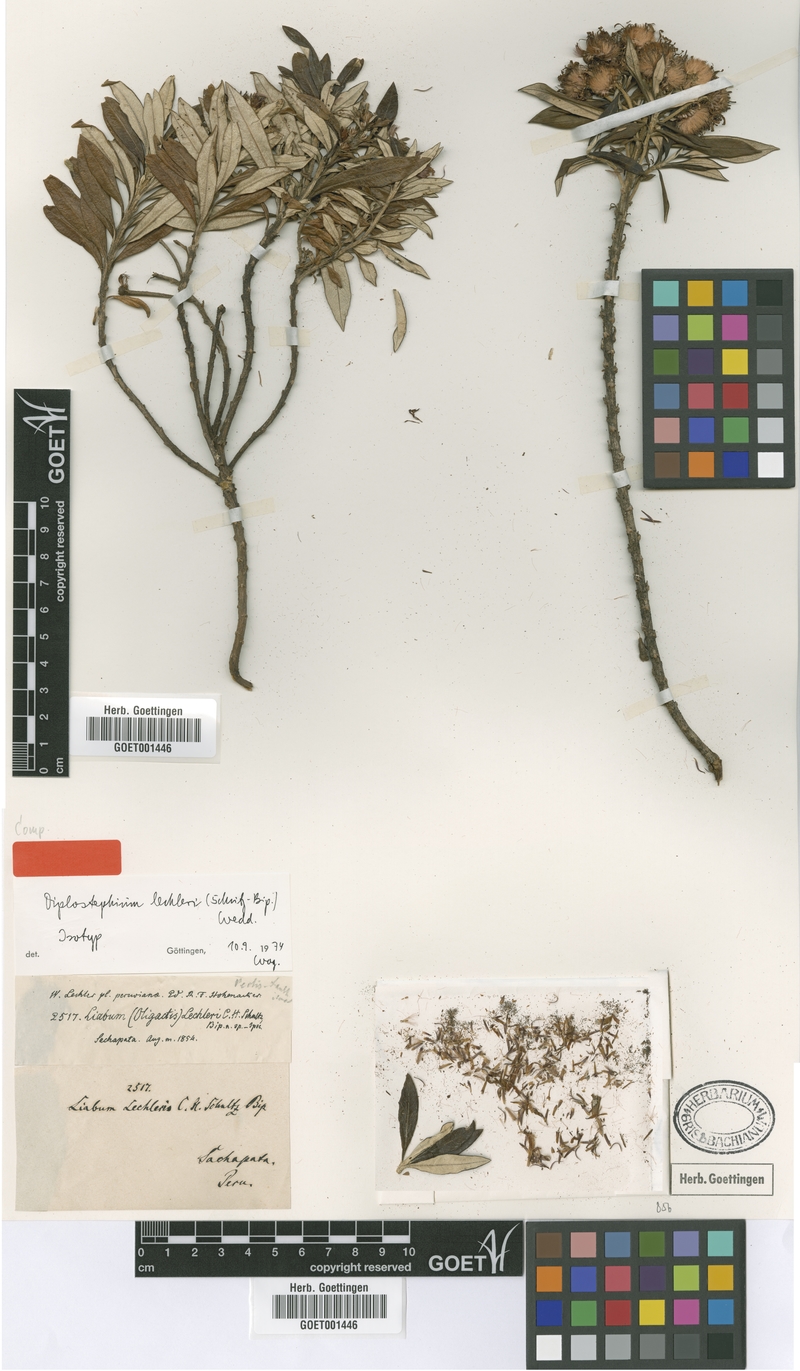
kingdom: Plantae
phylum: Tracheophyta
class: Magnoliopsida
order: Asterales
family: Asteraceae
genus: Diplostephium
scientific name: Diplostephium lechleri
